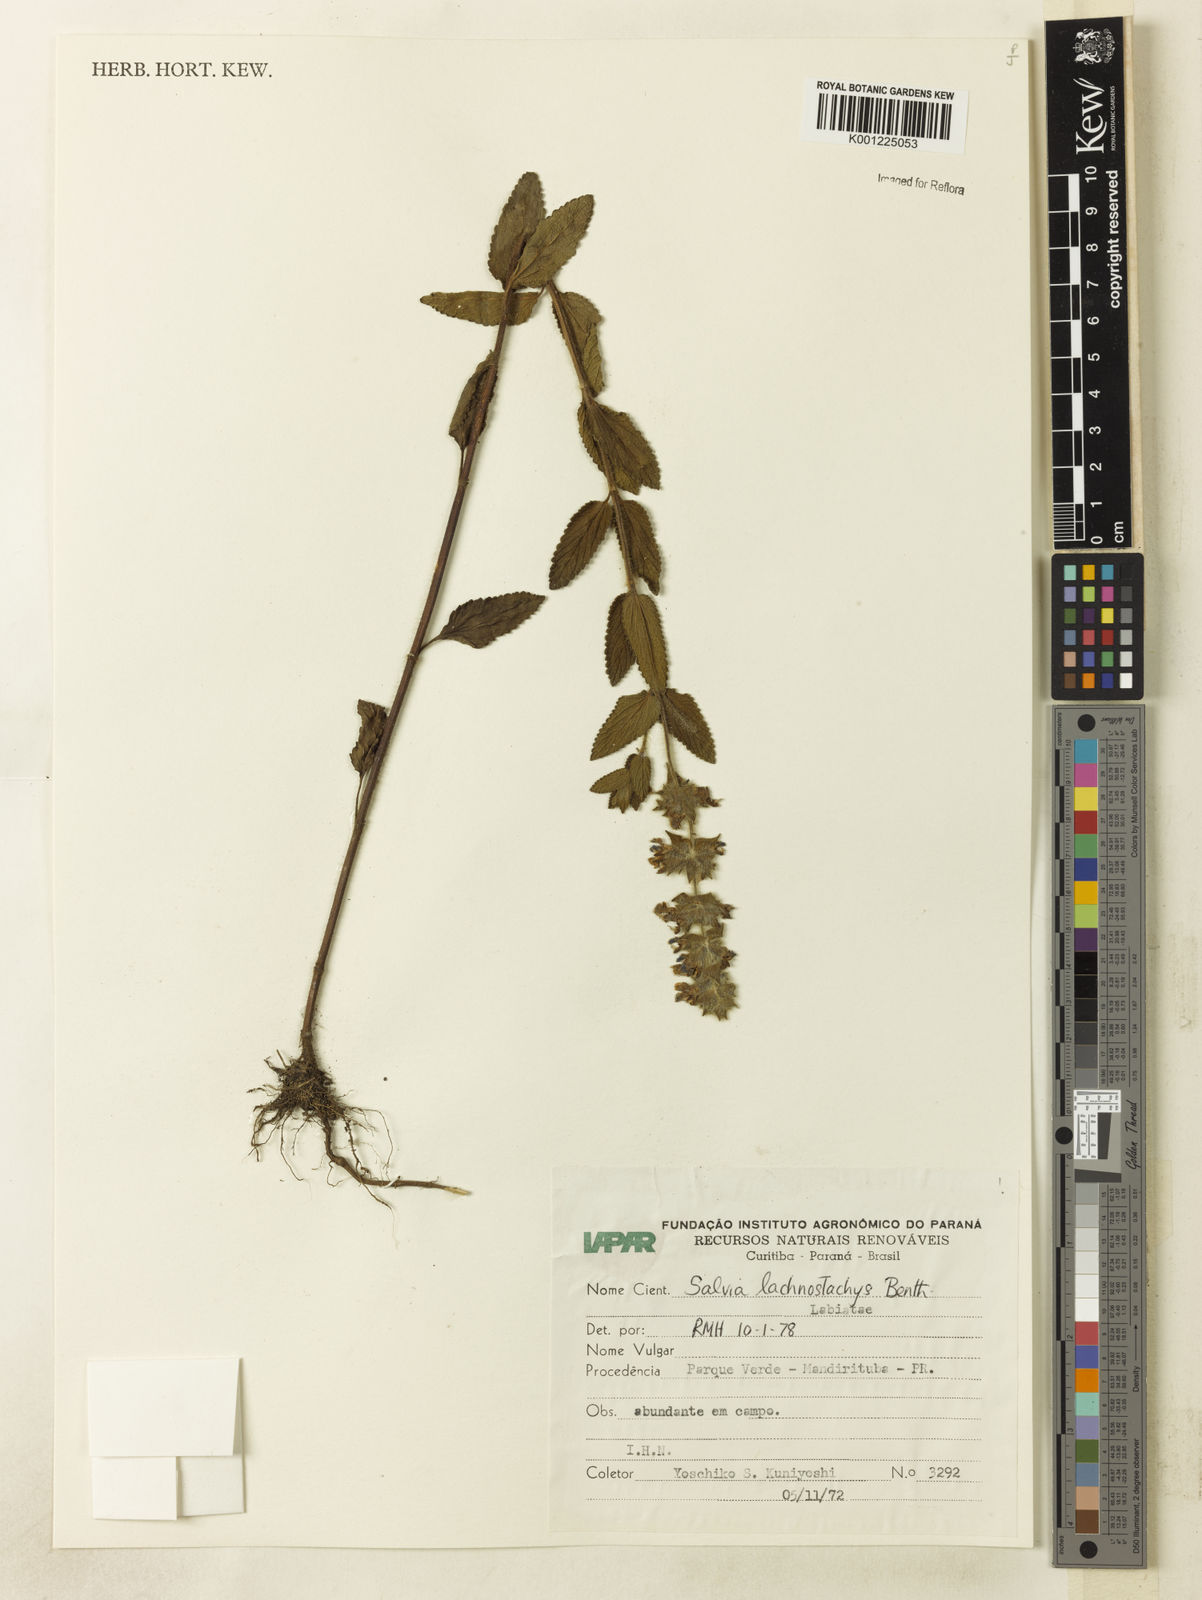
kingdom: Plantae
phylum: Tracheophyta
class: Magnoliopsida
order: Lamiales
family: Lamiaceae
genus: Salvia
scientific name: Salvia lachnostachys
